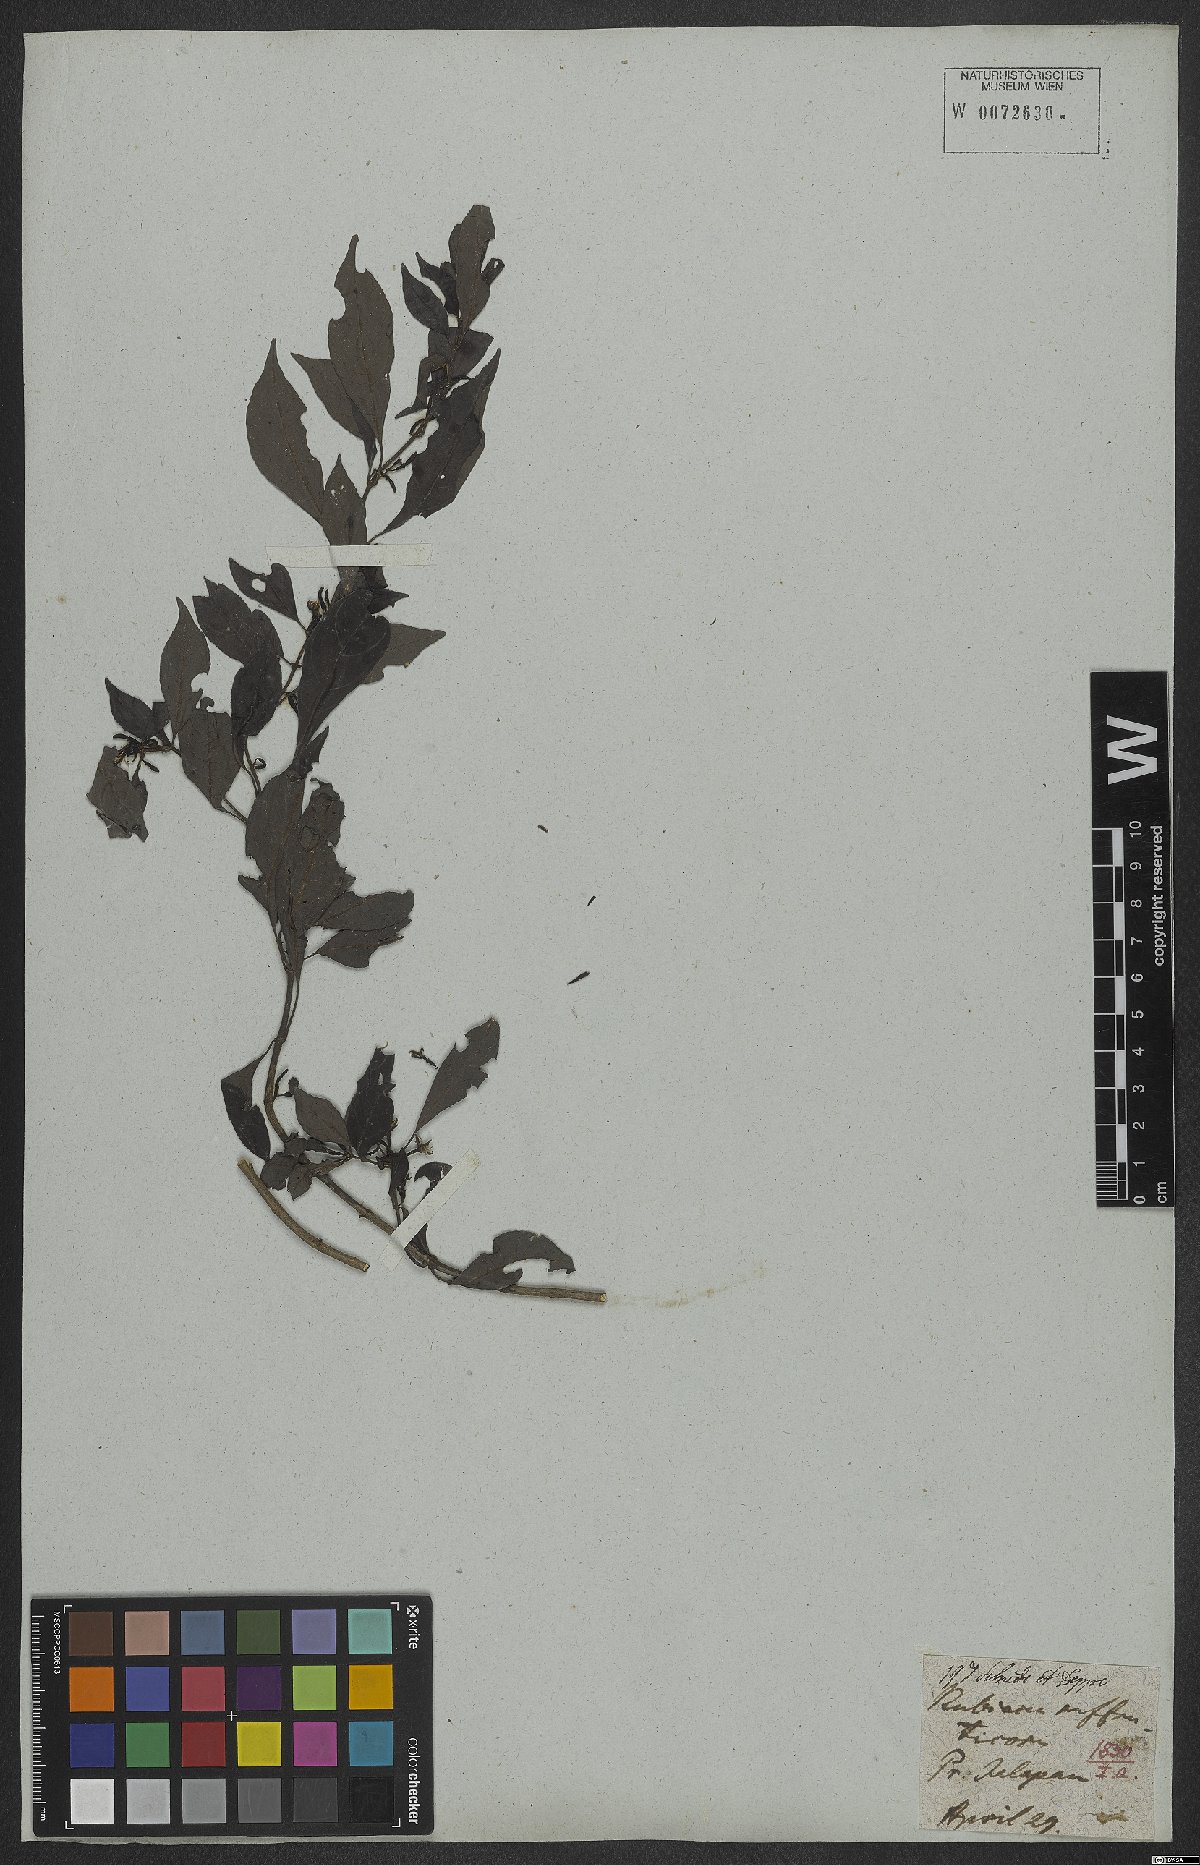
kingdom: Plantae
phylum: Tracheophyta
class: Magnoliopsida
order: Gentianales
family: Rubiaceae
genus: Rudgea
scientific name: Rudgea sessilis
